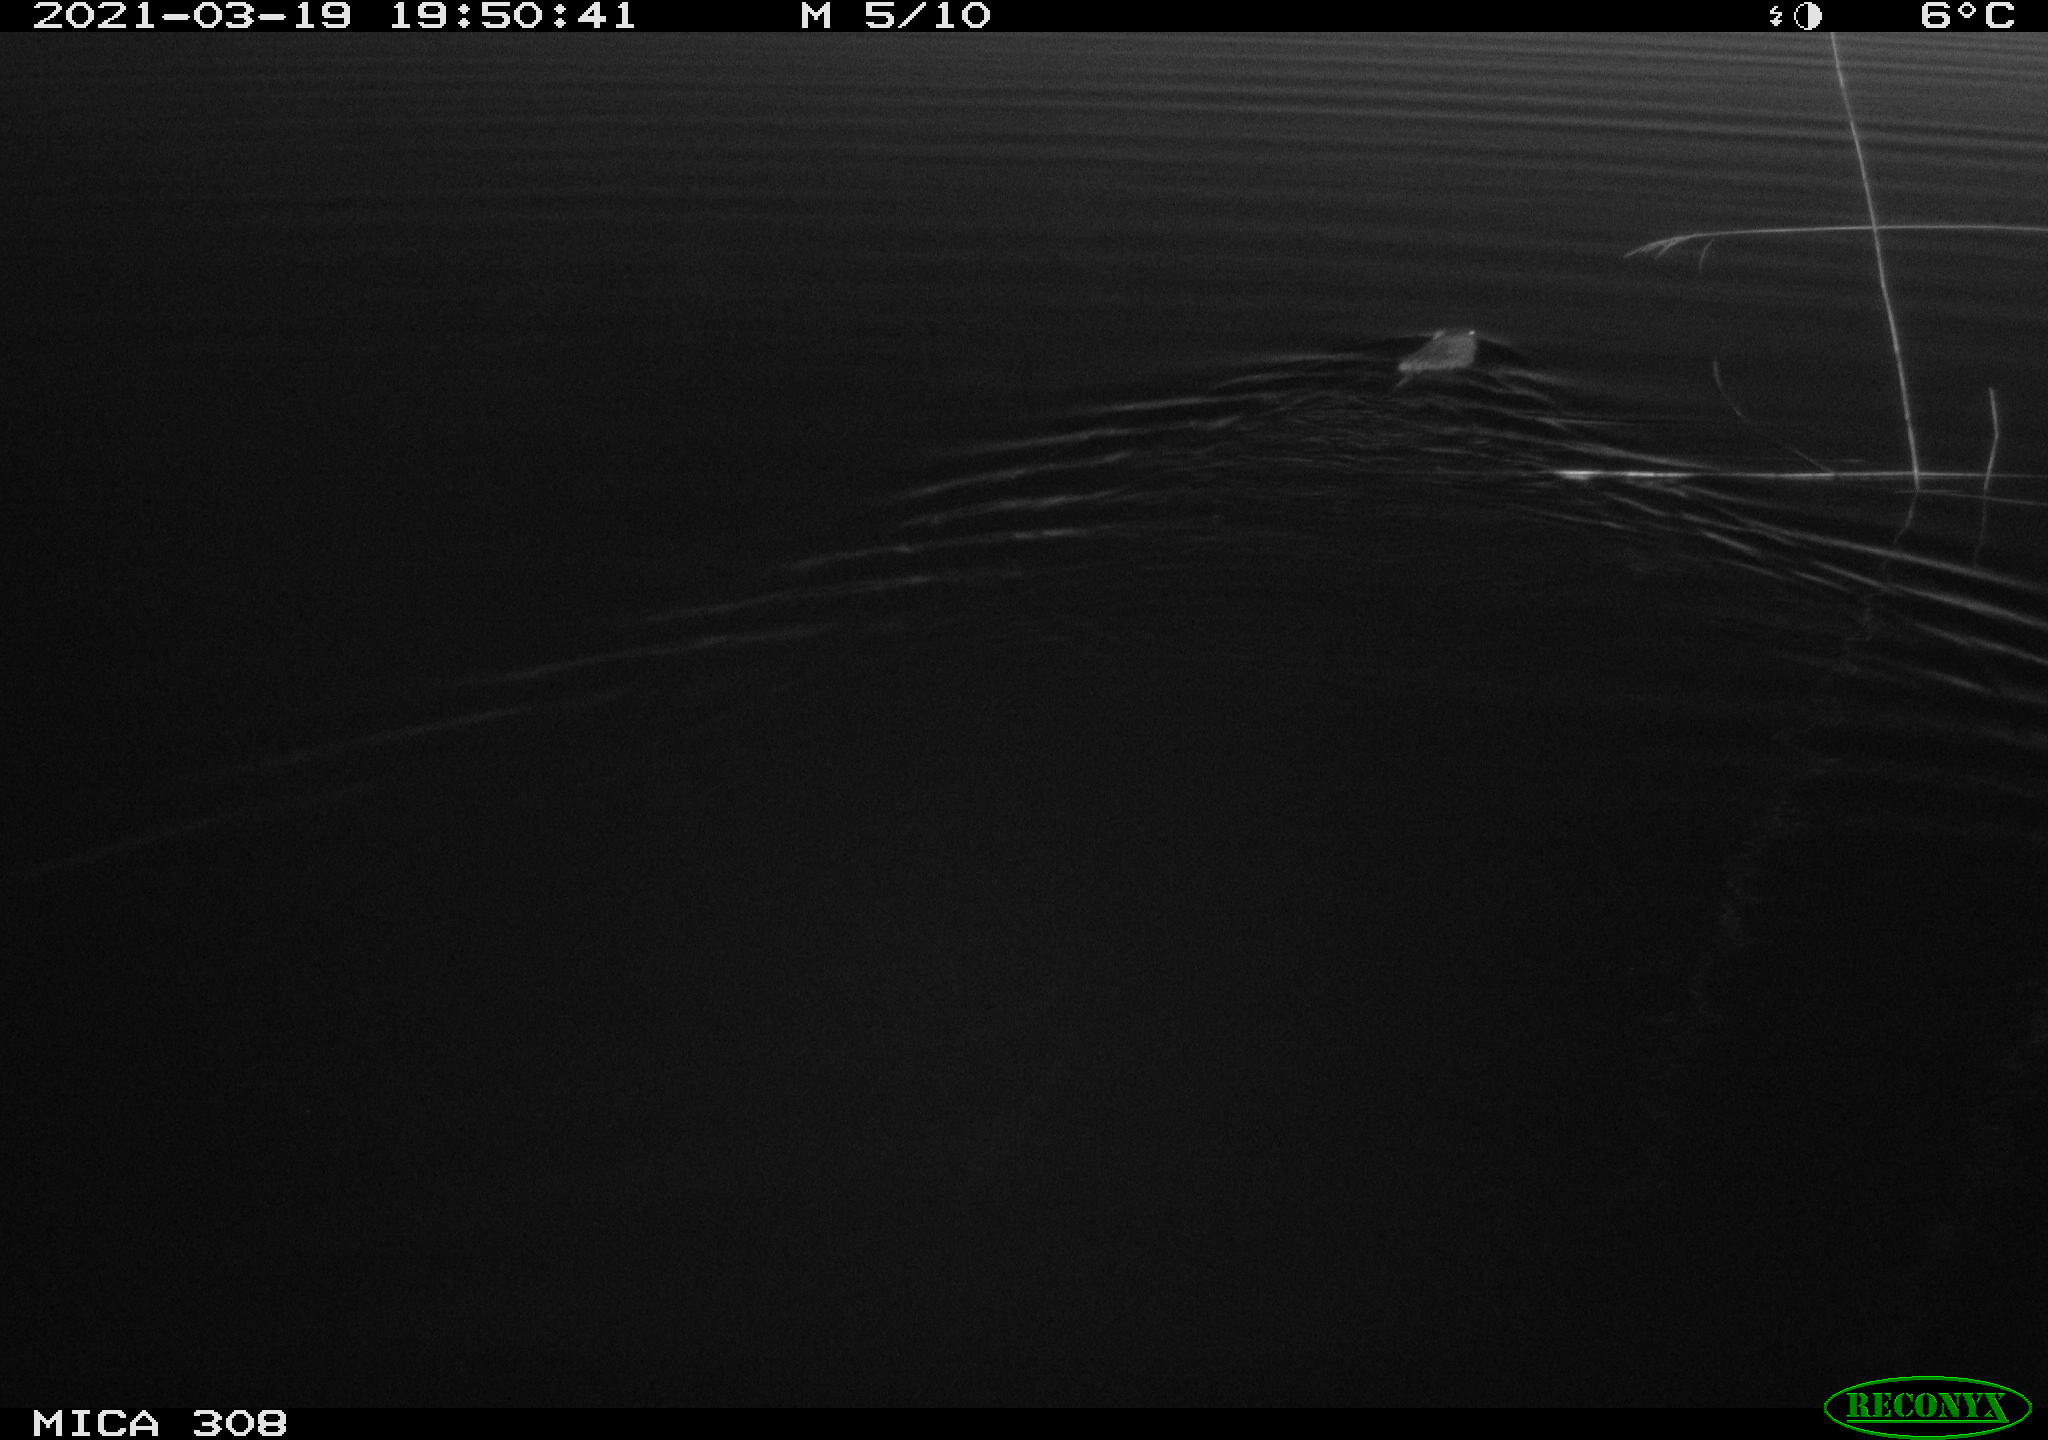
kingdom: Animalia
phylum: Chordata
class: Mammalia
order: Rodentia
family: Cricetidae
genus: Ondatra
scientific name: Ondatra zibethicus
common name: Muskrat
